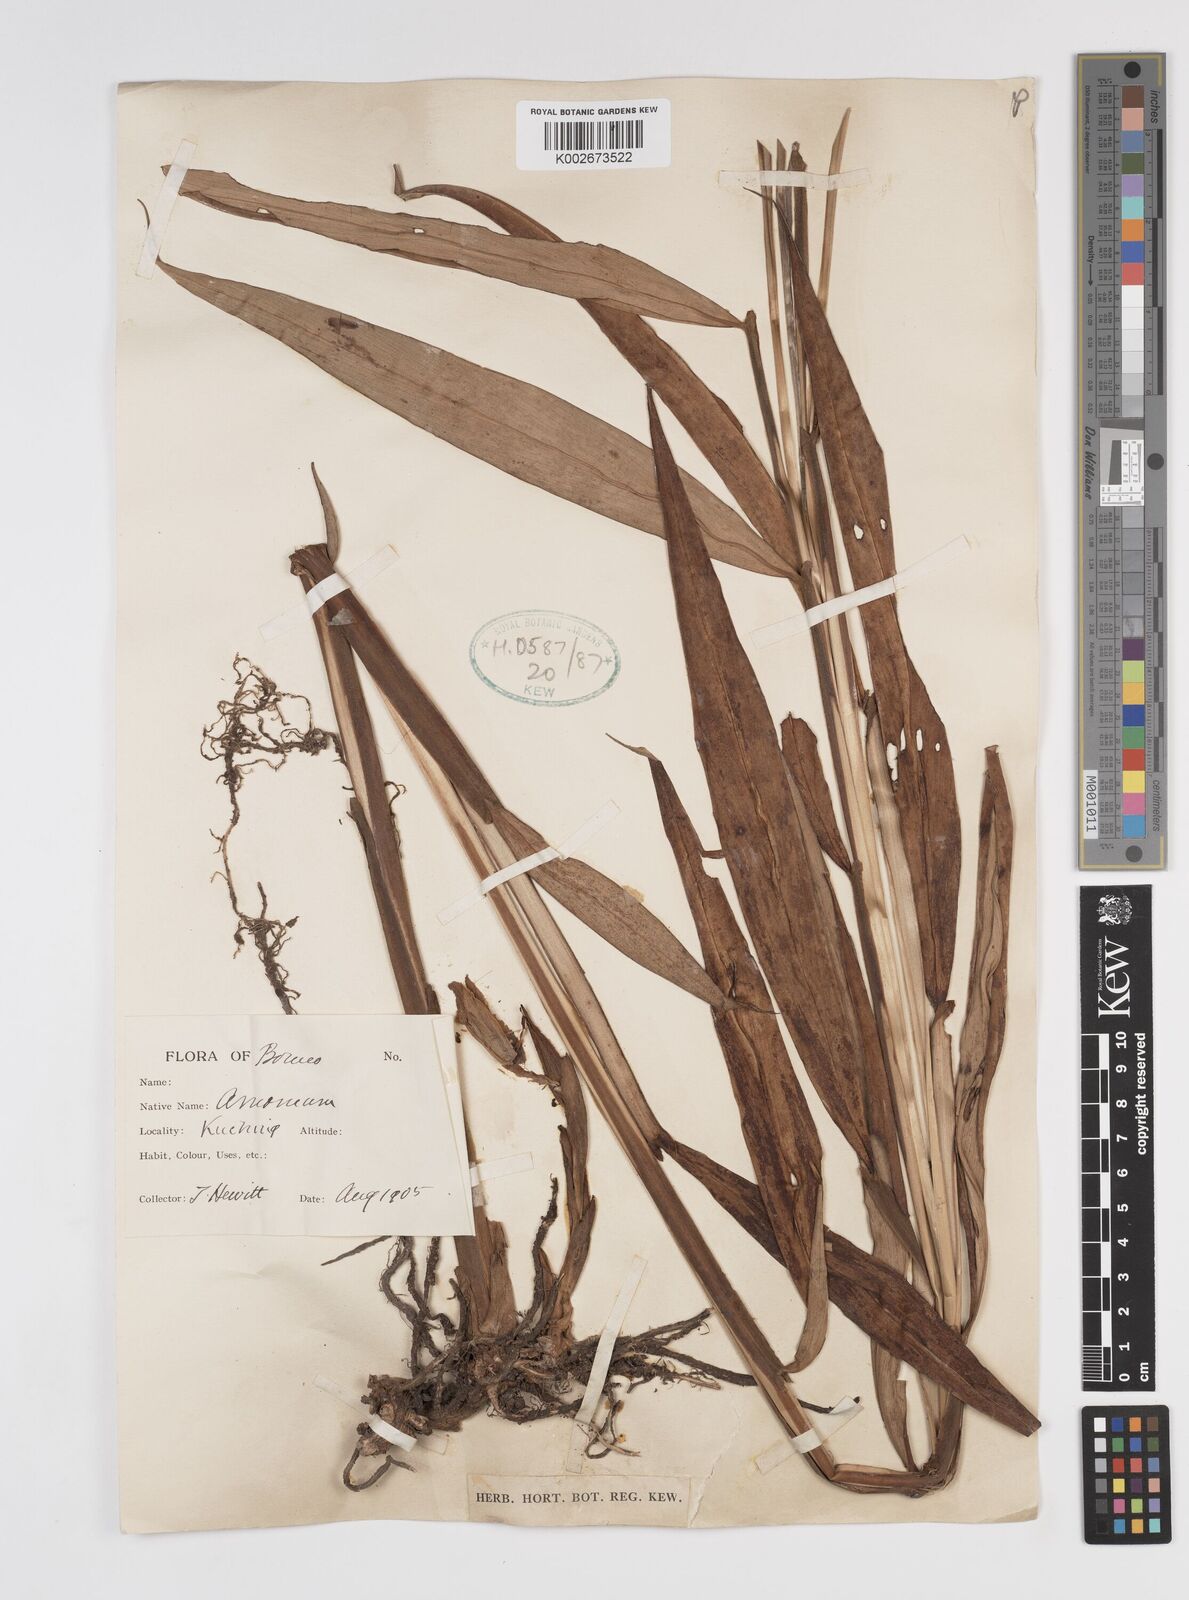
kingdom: Plantae
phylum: Tracheophyta
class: Liliopsida
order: Zingiberales
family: Zingiberaceae
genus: Amomum
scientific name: Amomum
